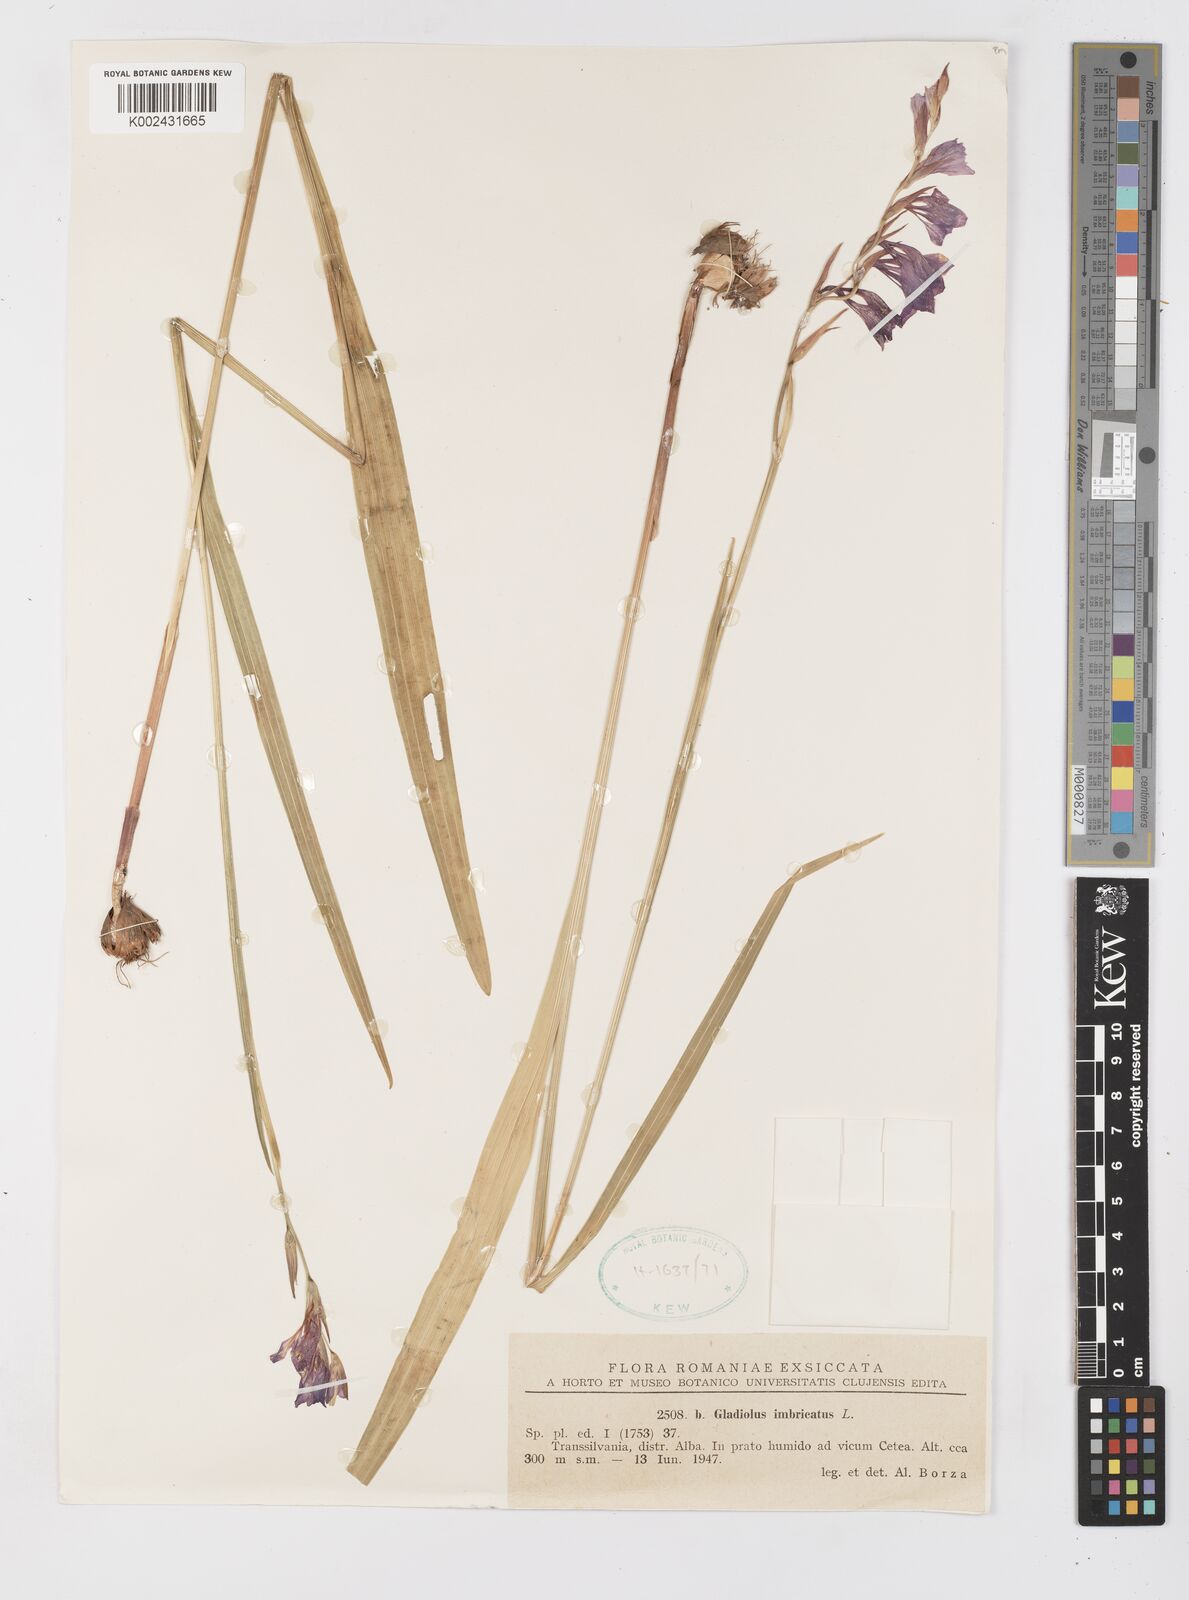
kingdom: Plantae
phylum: Tracheophyta
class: Liliopsida
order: Asparagales
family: Iridaceae
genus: Gladiolus
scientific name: Gladiolus imbricatus
